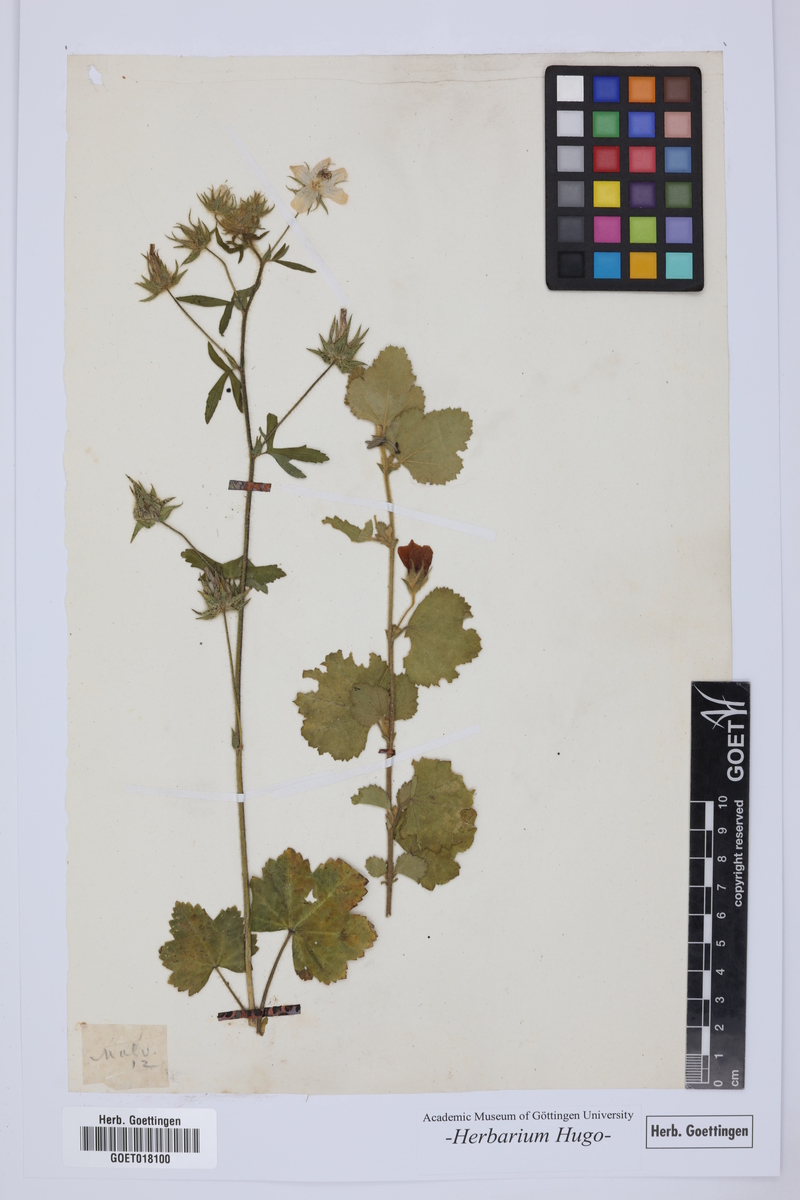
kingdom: Plantae
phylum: Tracheophyta
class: Magnoliopsida
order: Malvales
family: Malvaceae
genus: Malva
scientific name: Malva
